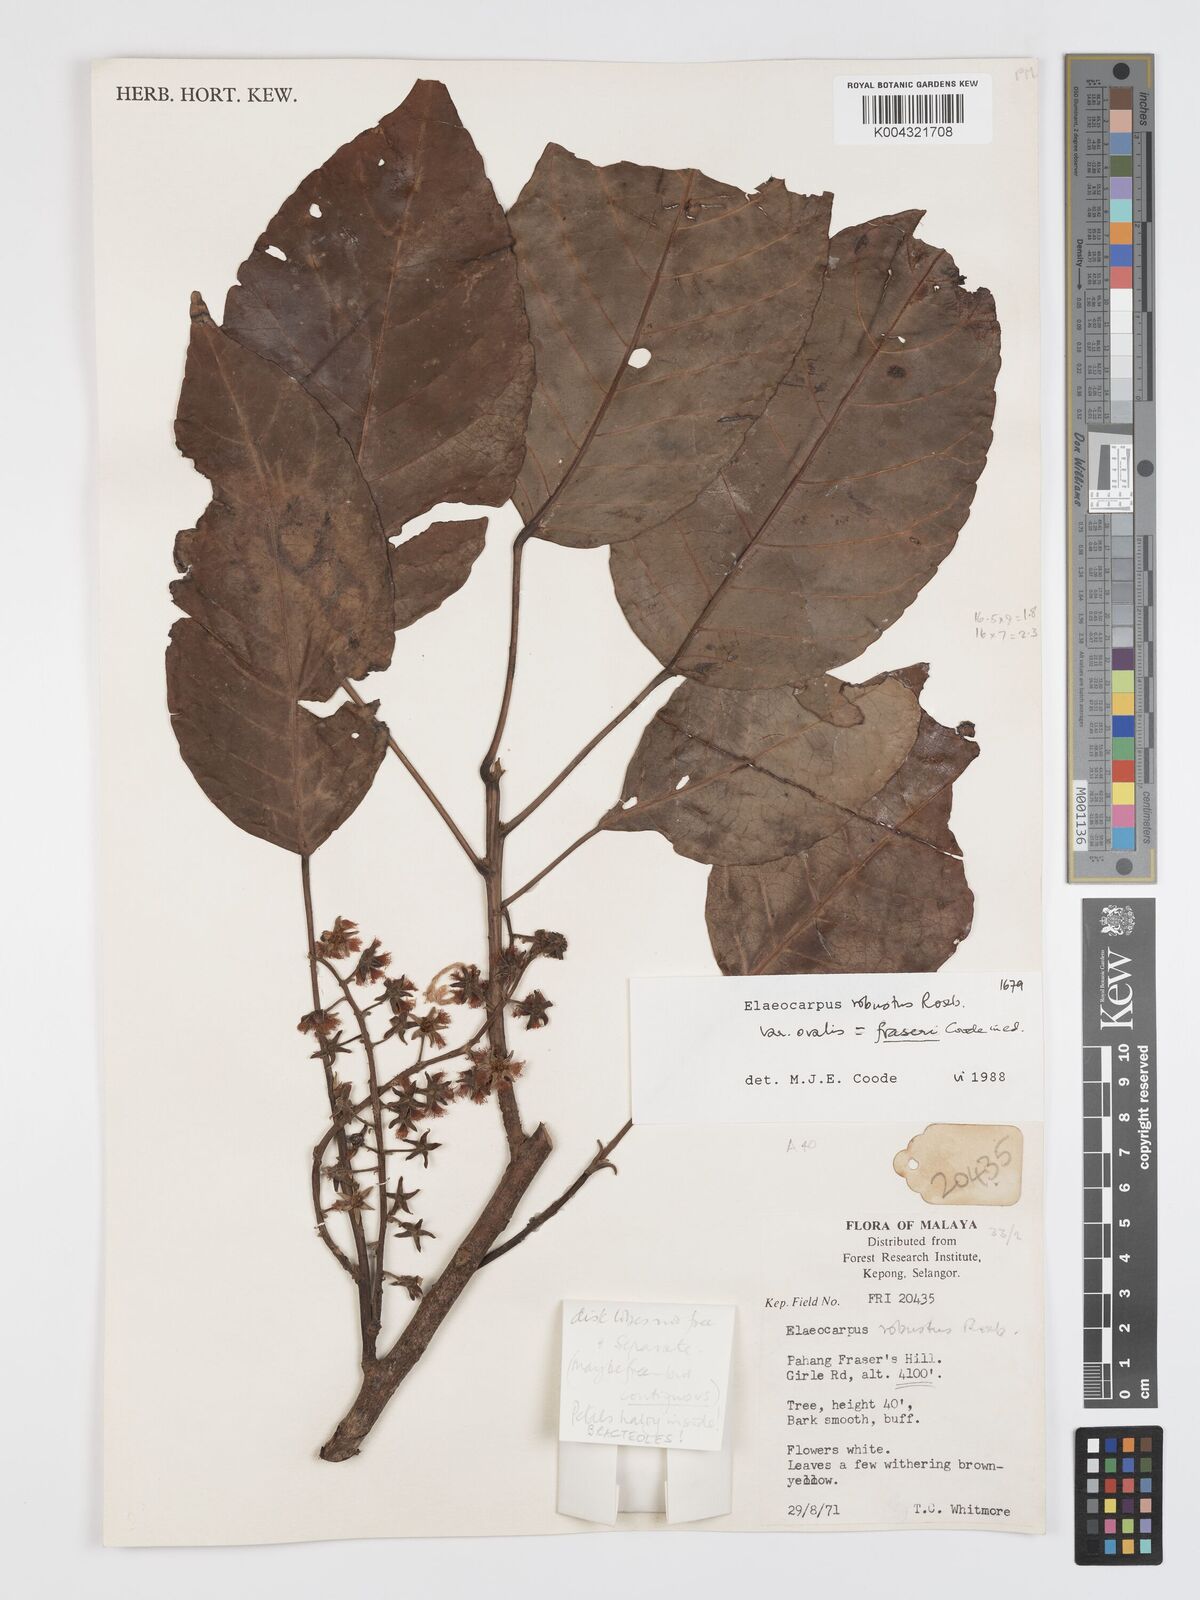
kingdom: Plantae
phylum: Tracheophyta
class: Magnoliopsida
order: Oxalidales
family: Elaeocarpaceae
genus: Elaeocarpus
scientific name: Elaeocarpus robustus
